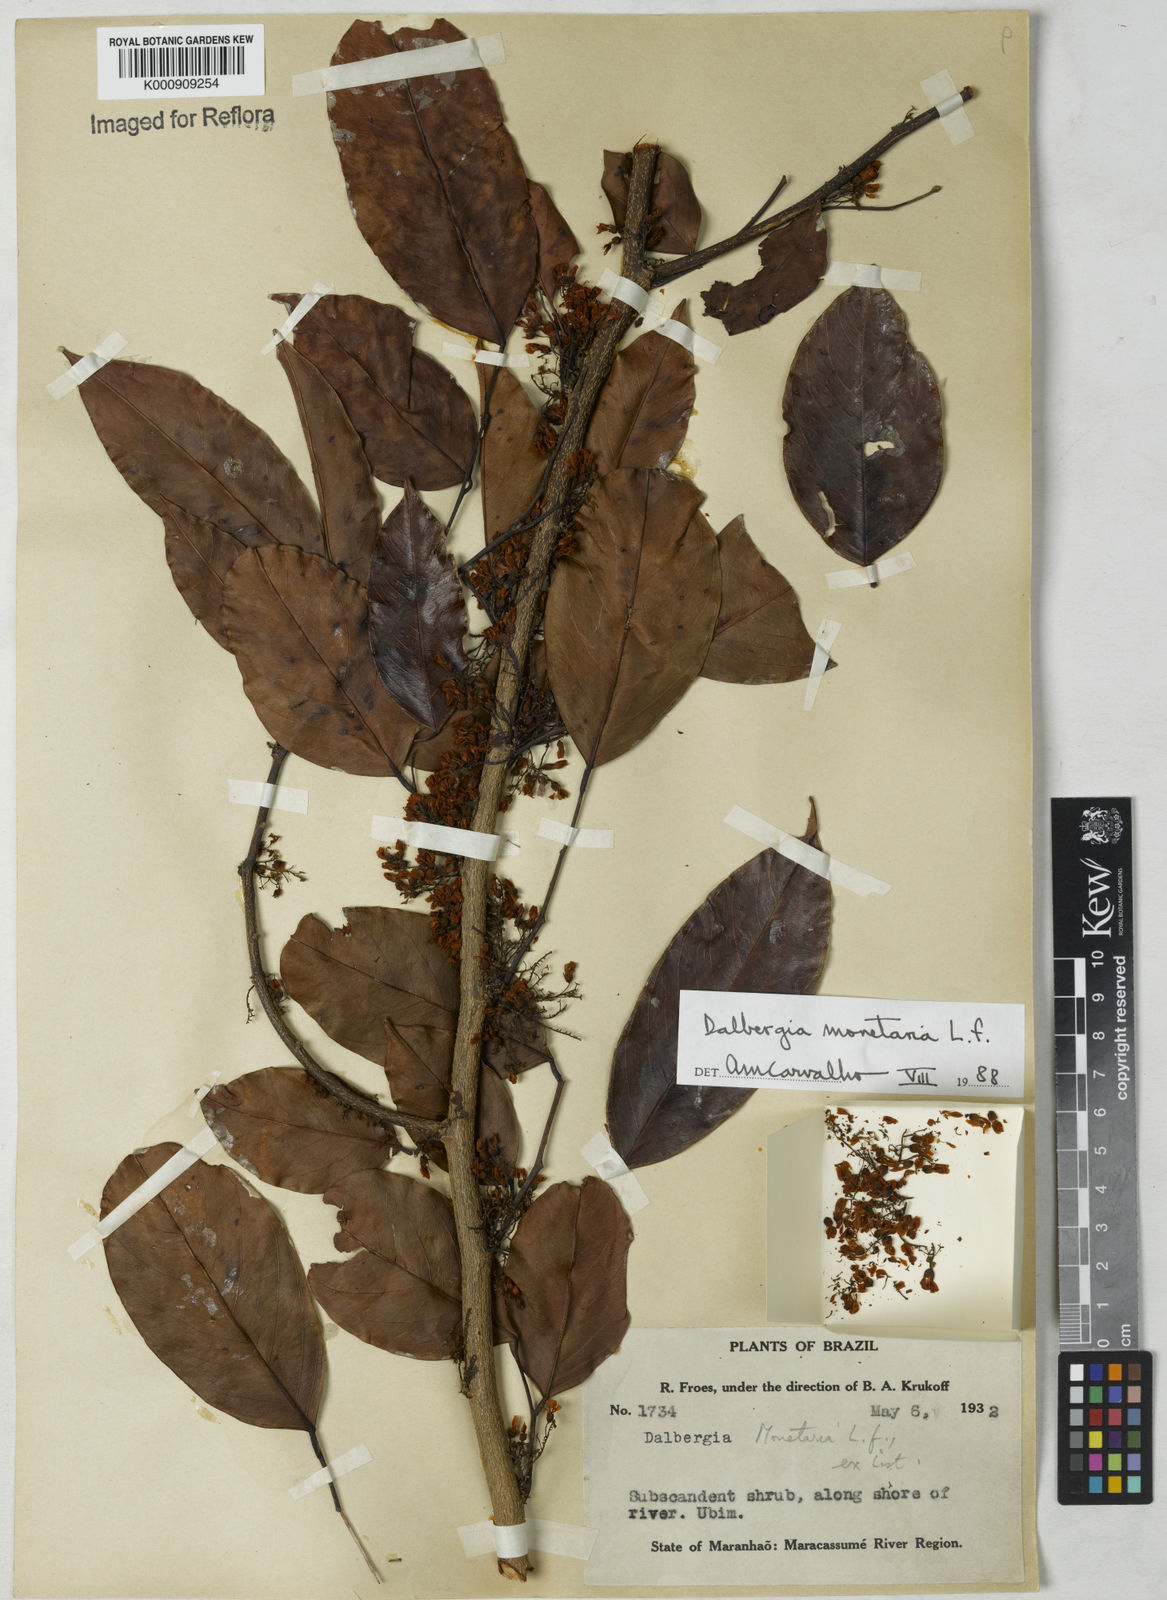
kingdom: Plantae
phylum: Tracheophyta
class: Magnoliopsida
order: Fabales
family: Fabaceae
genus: Dalbergia
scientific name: Dalbergia ovalis
